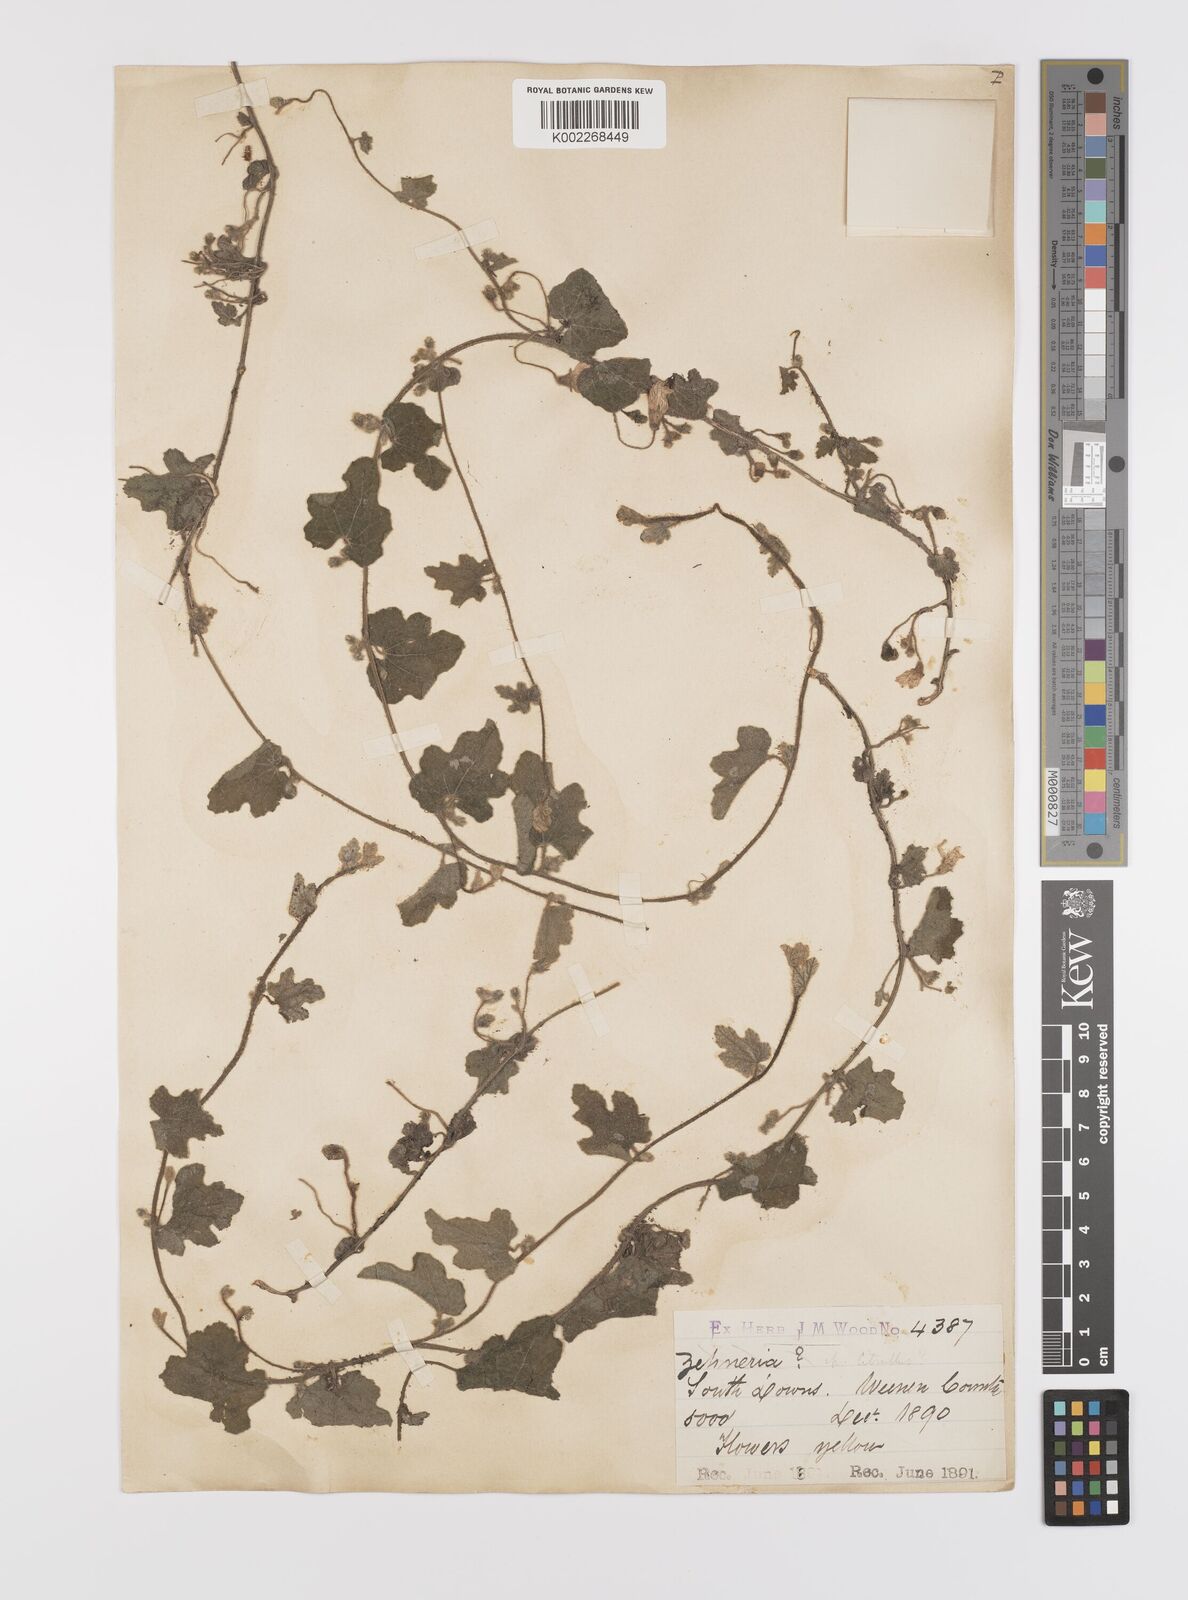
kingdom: Plantae
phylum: Tracheophyta
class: Magnoliopsida
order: Cucurbitales
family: Cucurbitaceae
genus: Cucumis
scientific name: Cucumis hirsutus
